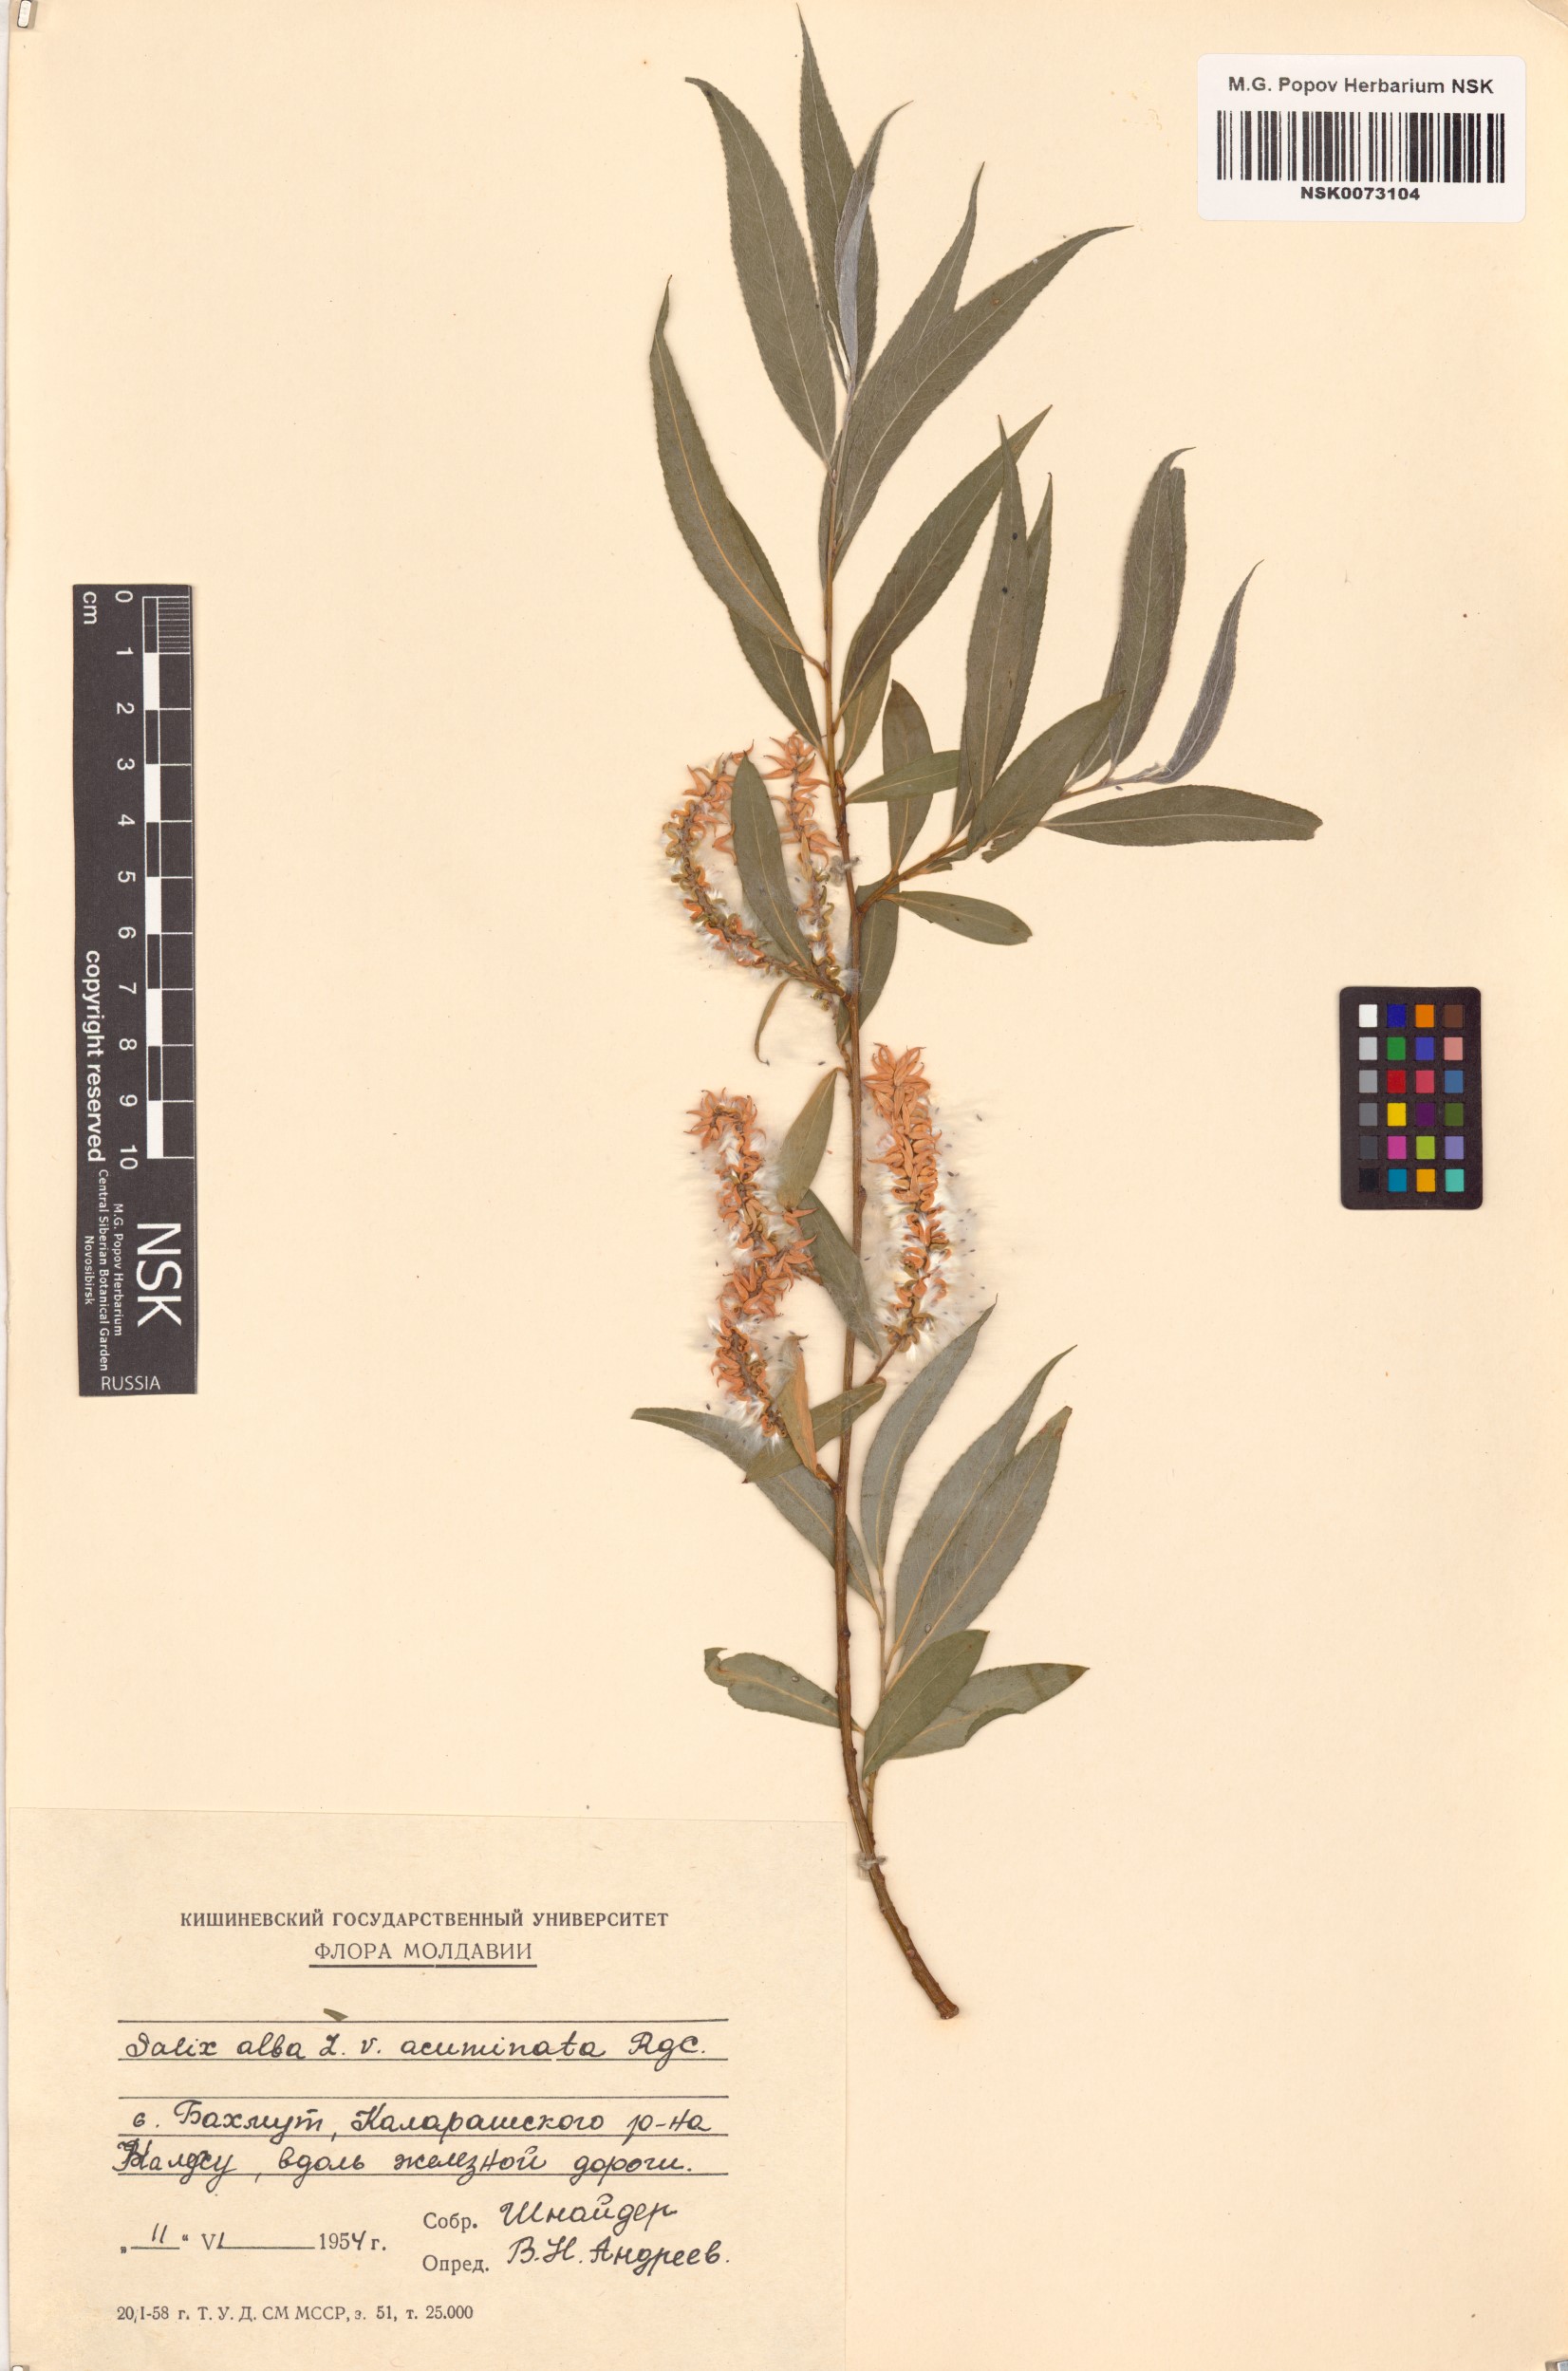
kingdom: Plantae
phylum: Tracheophyta
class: Magnoliopsida
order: Malpighiales
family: Salicaceae
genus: Salix
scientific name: Salix alba
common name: White willow
